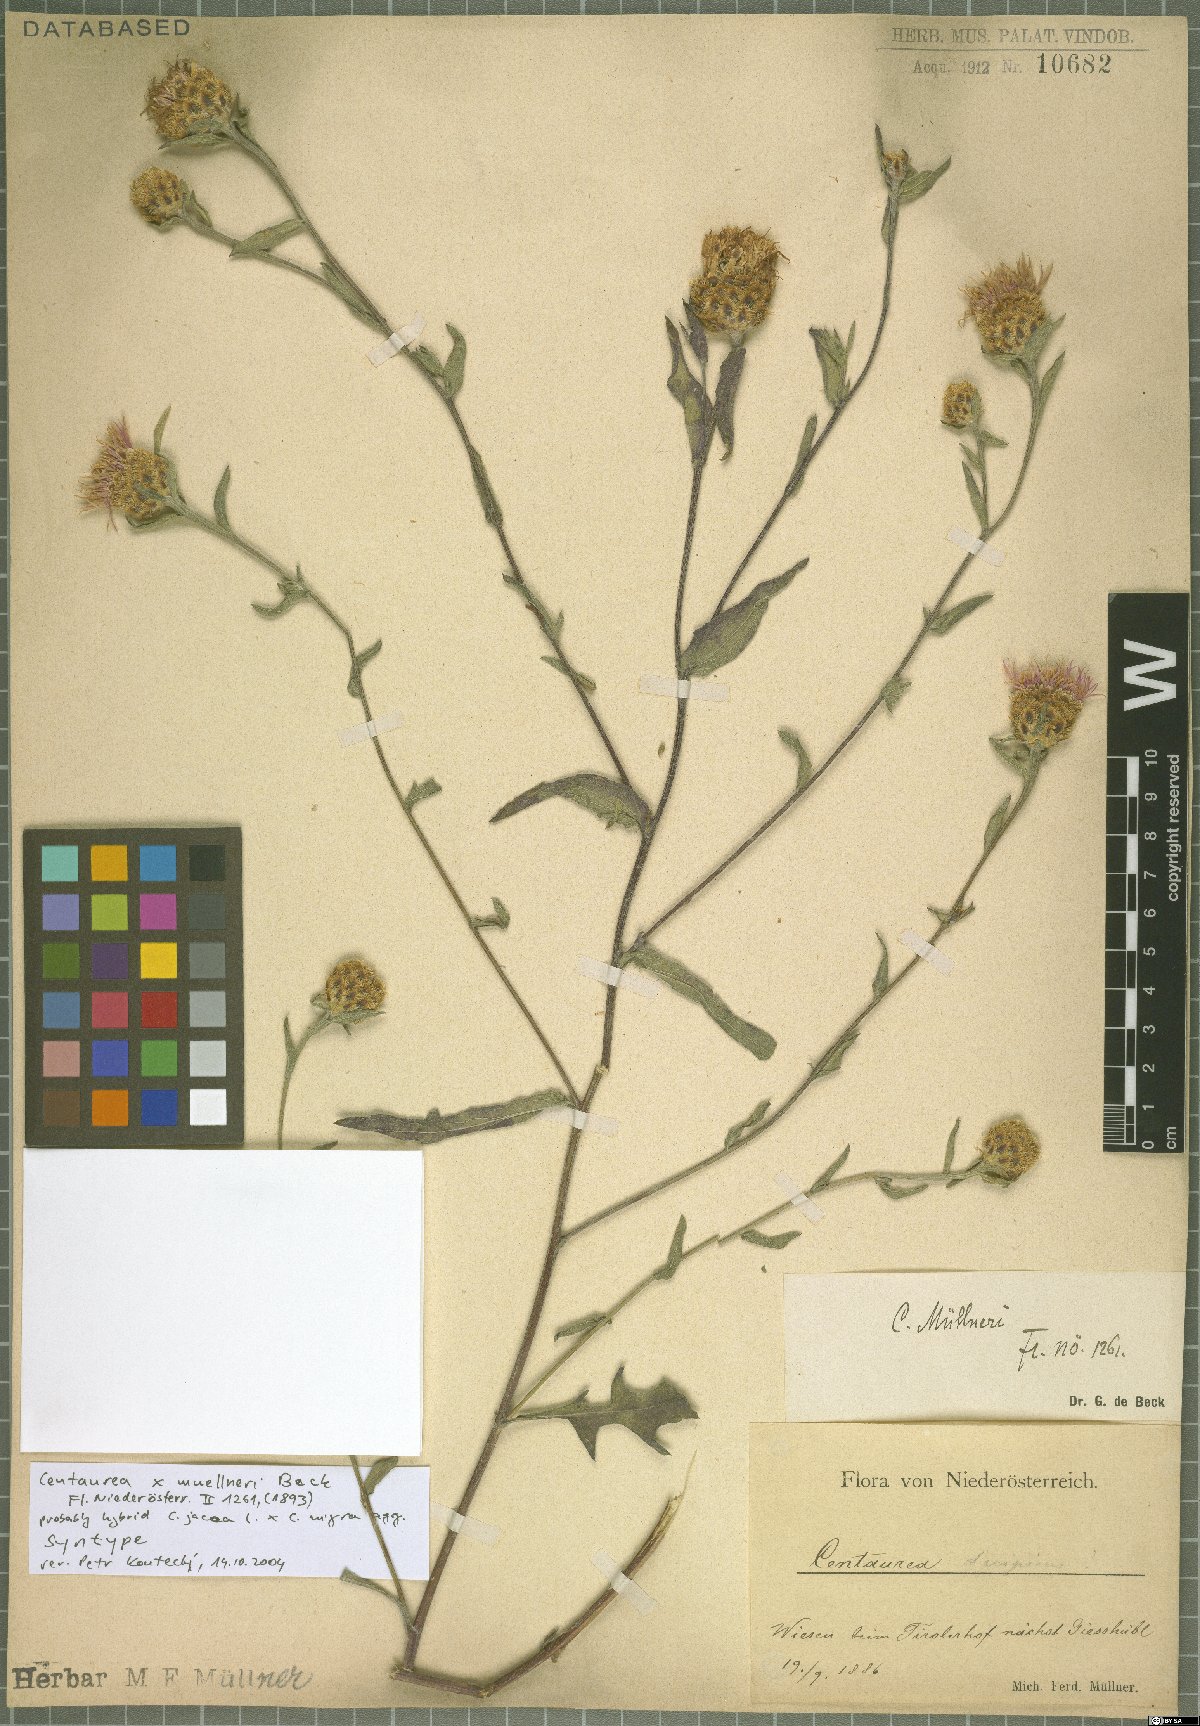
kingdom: Plantae
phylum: Tracheophyta
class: Magnoliopsida
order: Asterales
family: Asteraceae
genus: Centaurea
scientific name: Centaurea
